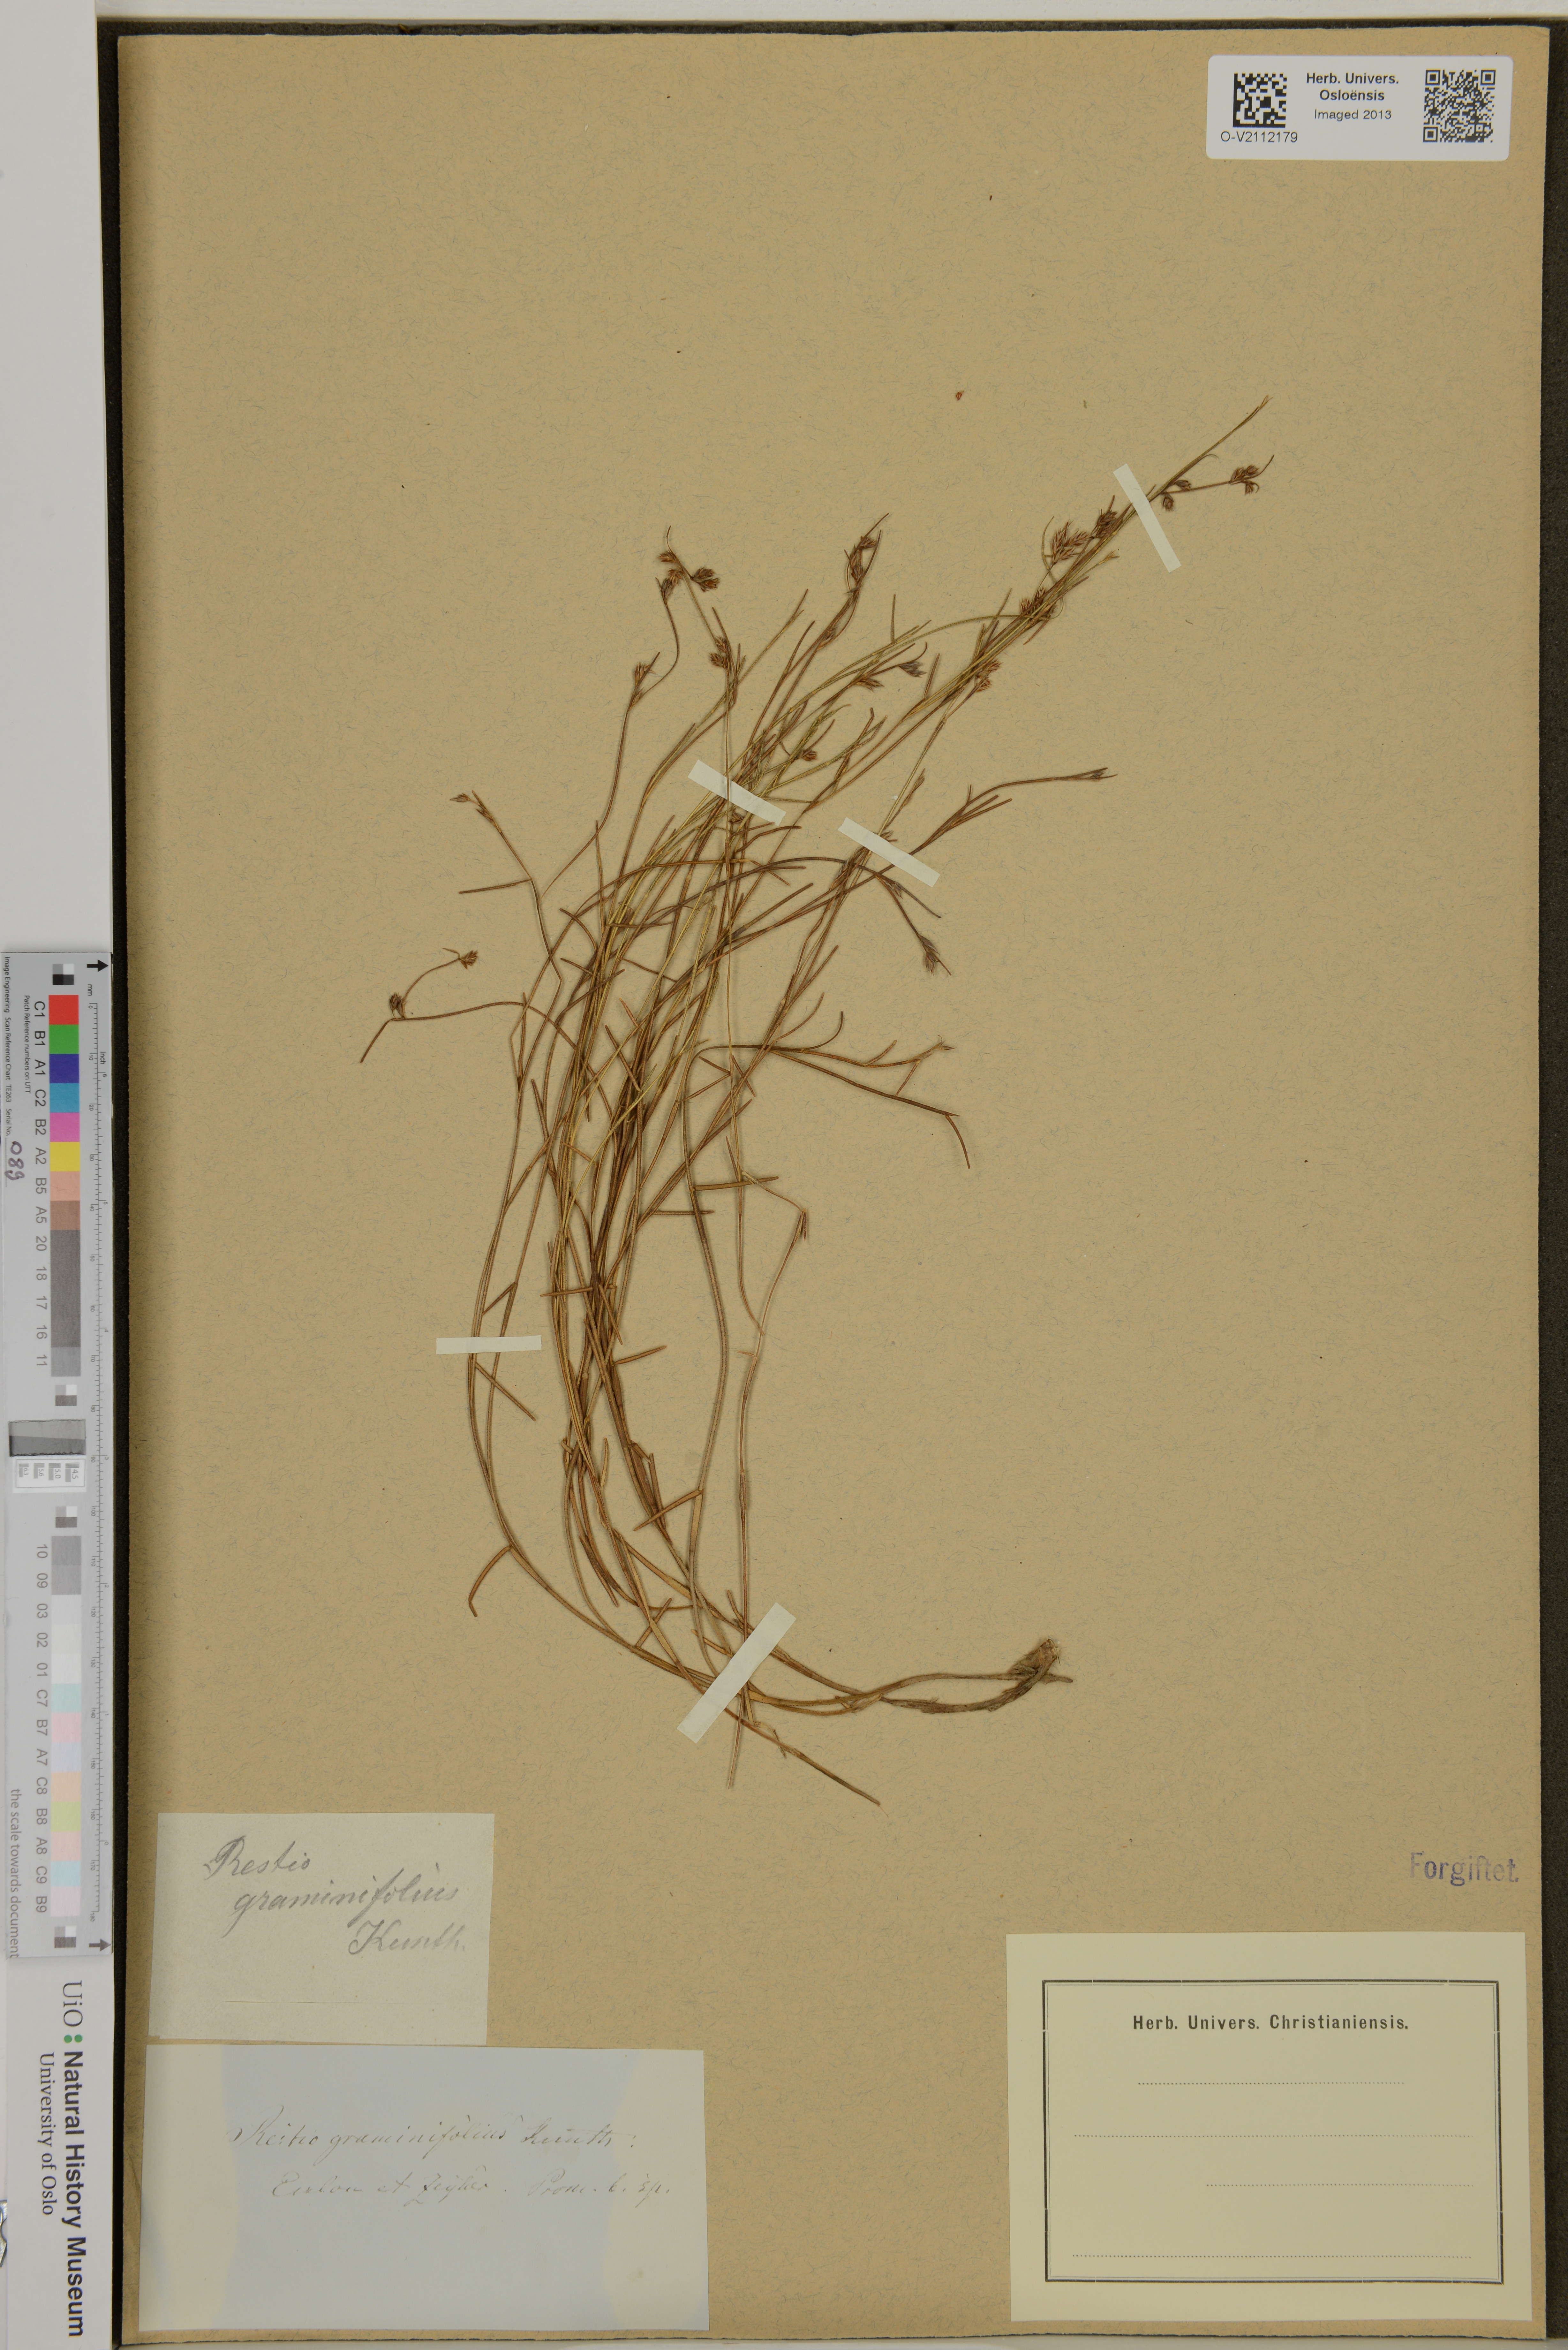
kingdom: Plantae
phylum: Tracheophyta
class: Liliopsida
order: Poales
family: Restionaceae
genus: Anthochortus
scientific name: Anthochortus graminifolius
